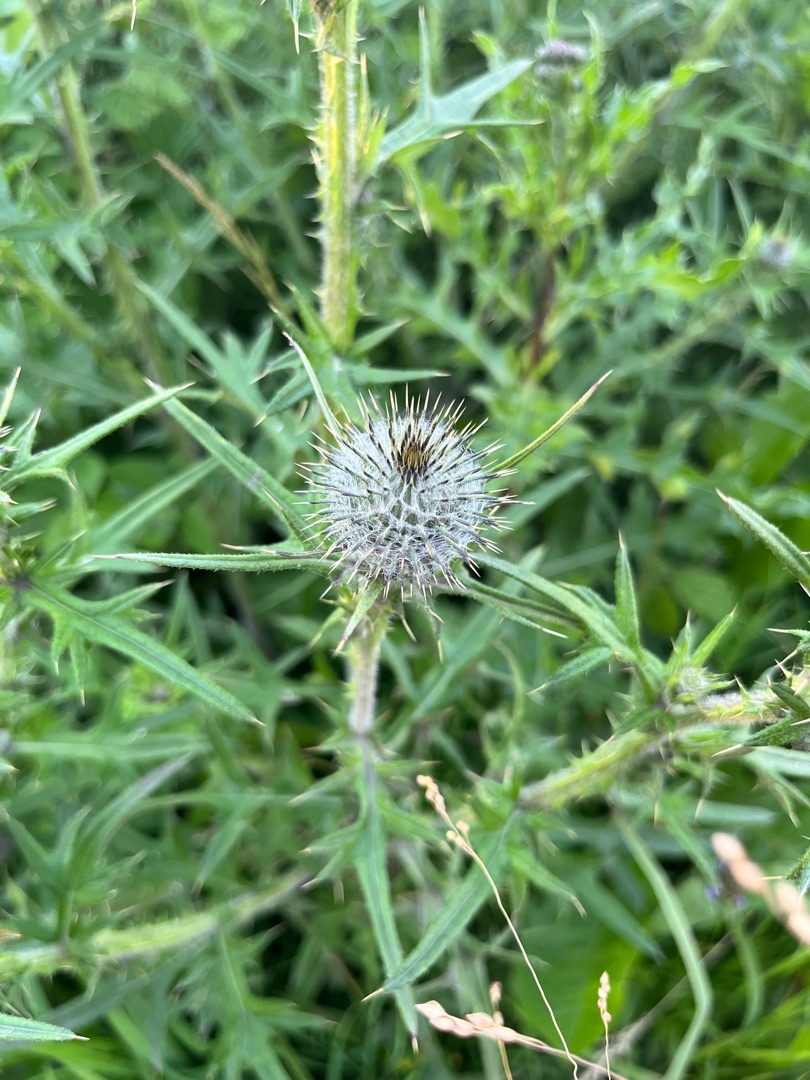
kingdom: Plantae
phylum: Tracheophyta
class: Magnoliopsida
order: Asterales
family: Asteraceae
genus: Cirsium
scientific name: Cirsium vulgare
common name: Horse-tidsel
